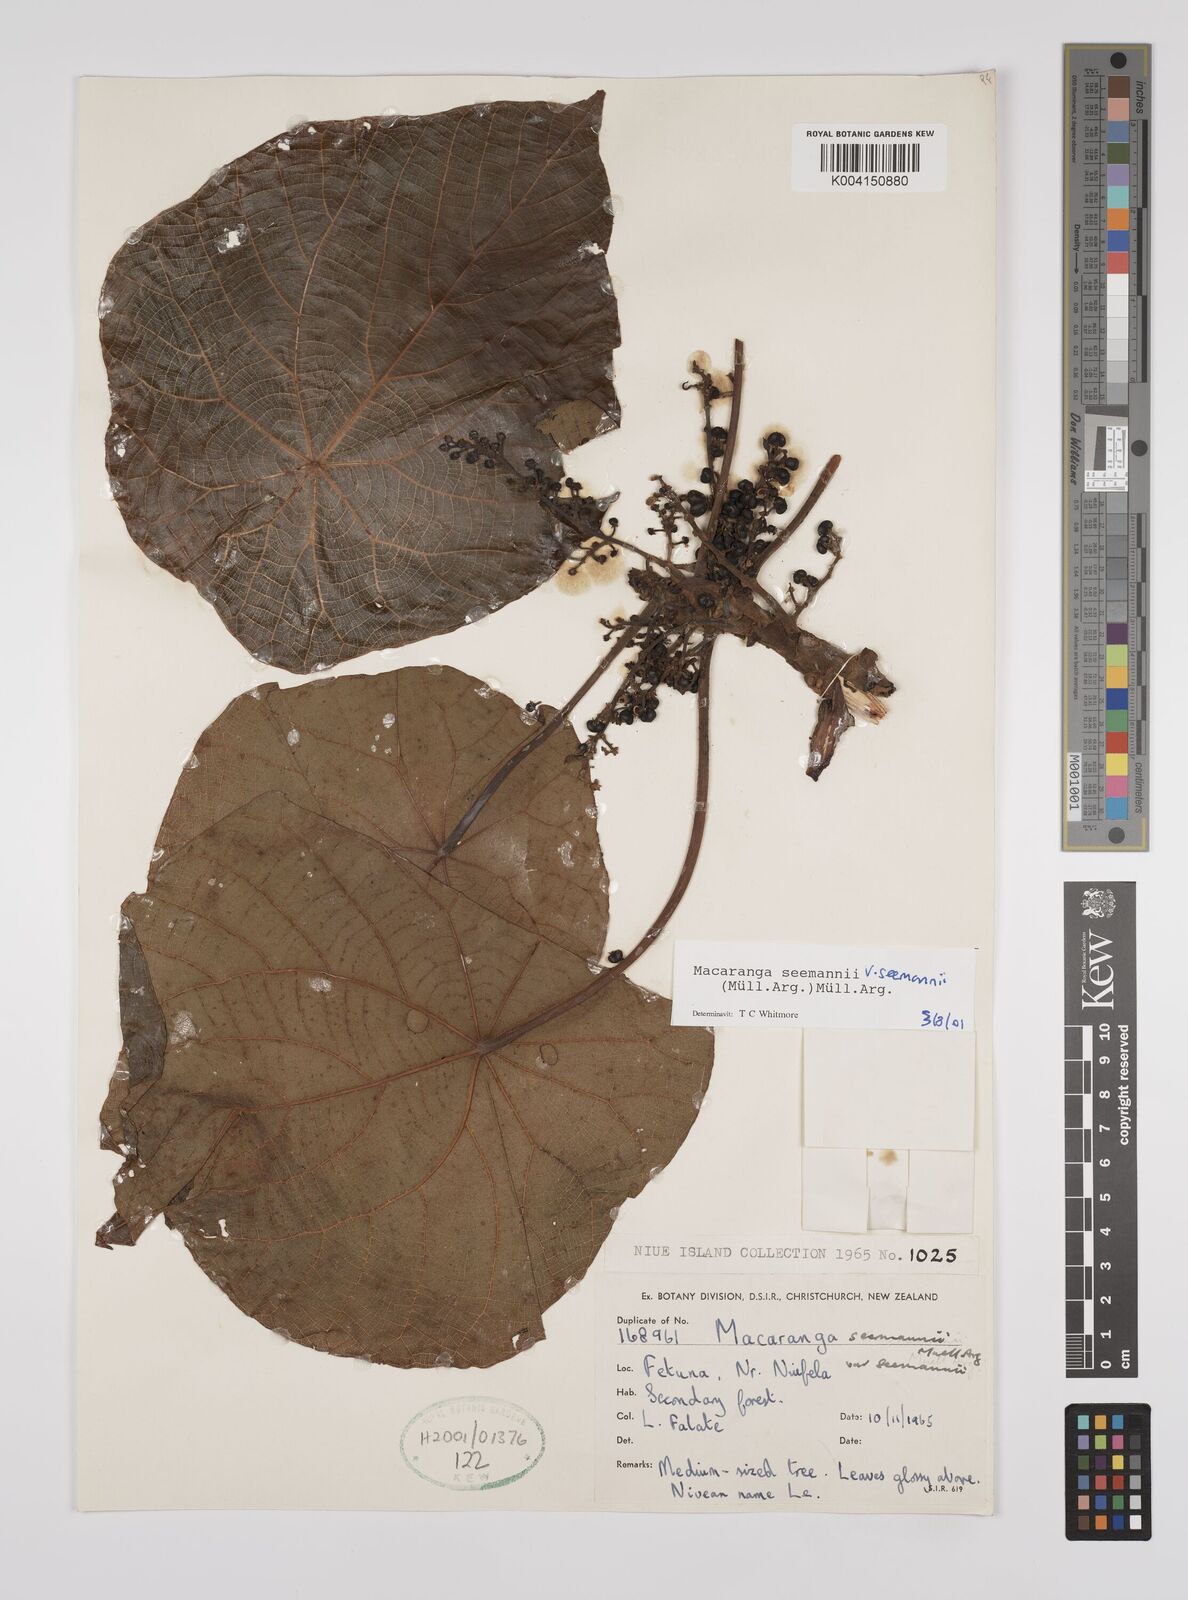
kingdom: Plantae
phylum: Tracheophyta
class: Magnoliopsida
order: Malpighiales
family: Euphorbiaceae
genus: Macaranga
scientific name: Macaranga seemannii
